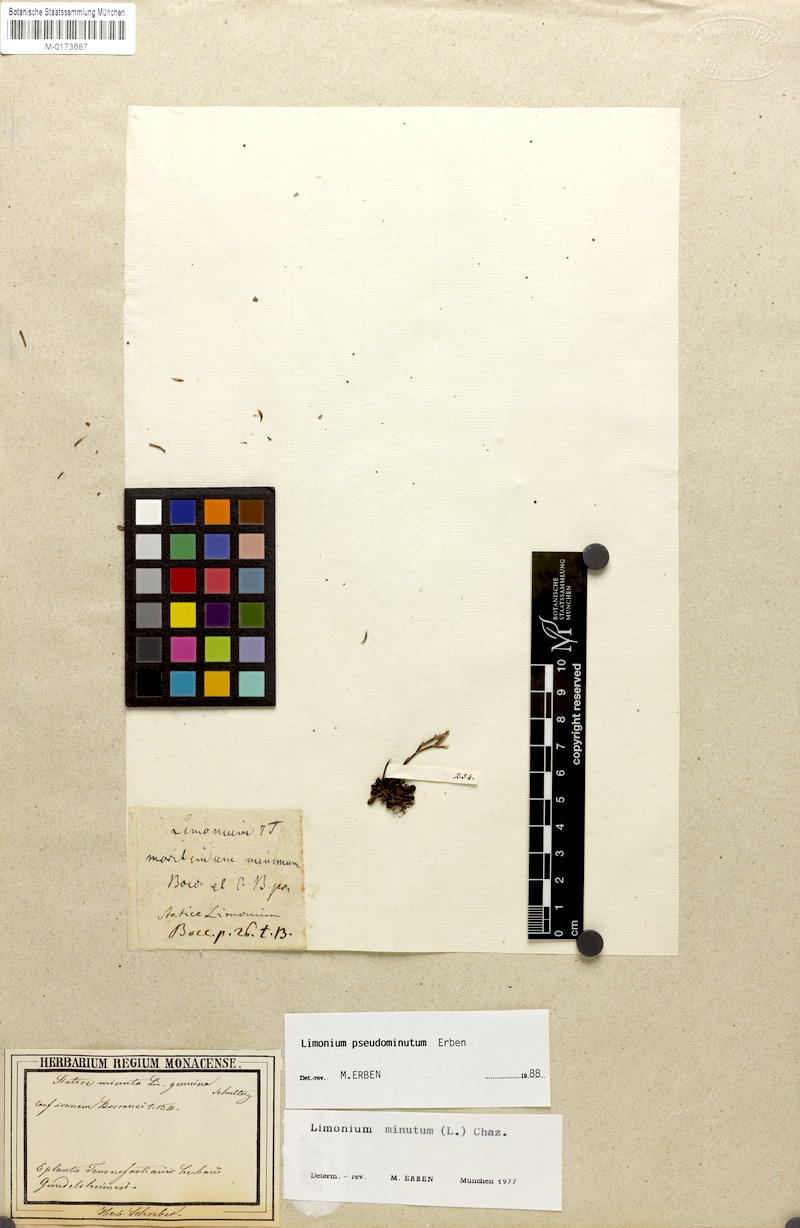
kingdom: Plantae
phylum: Tracheophyta
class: Magnoliopsida
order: Caryophyllales
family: Plumbaginaceae
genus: Limonium
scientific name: Limonium pseudominutum
